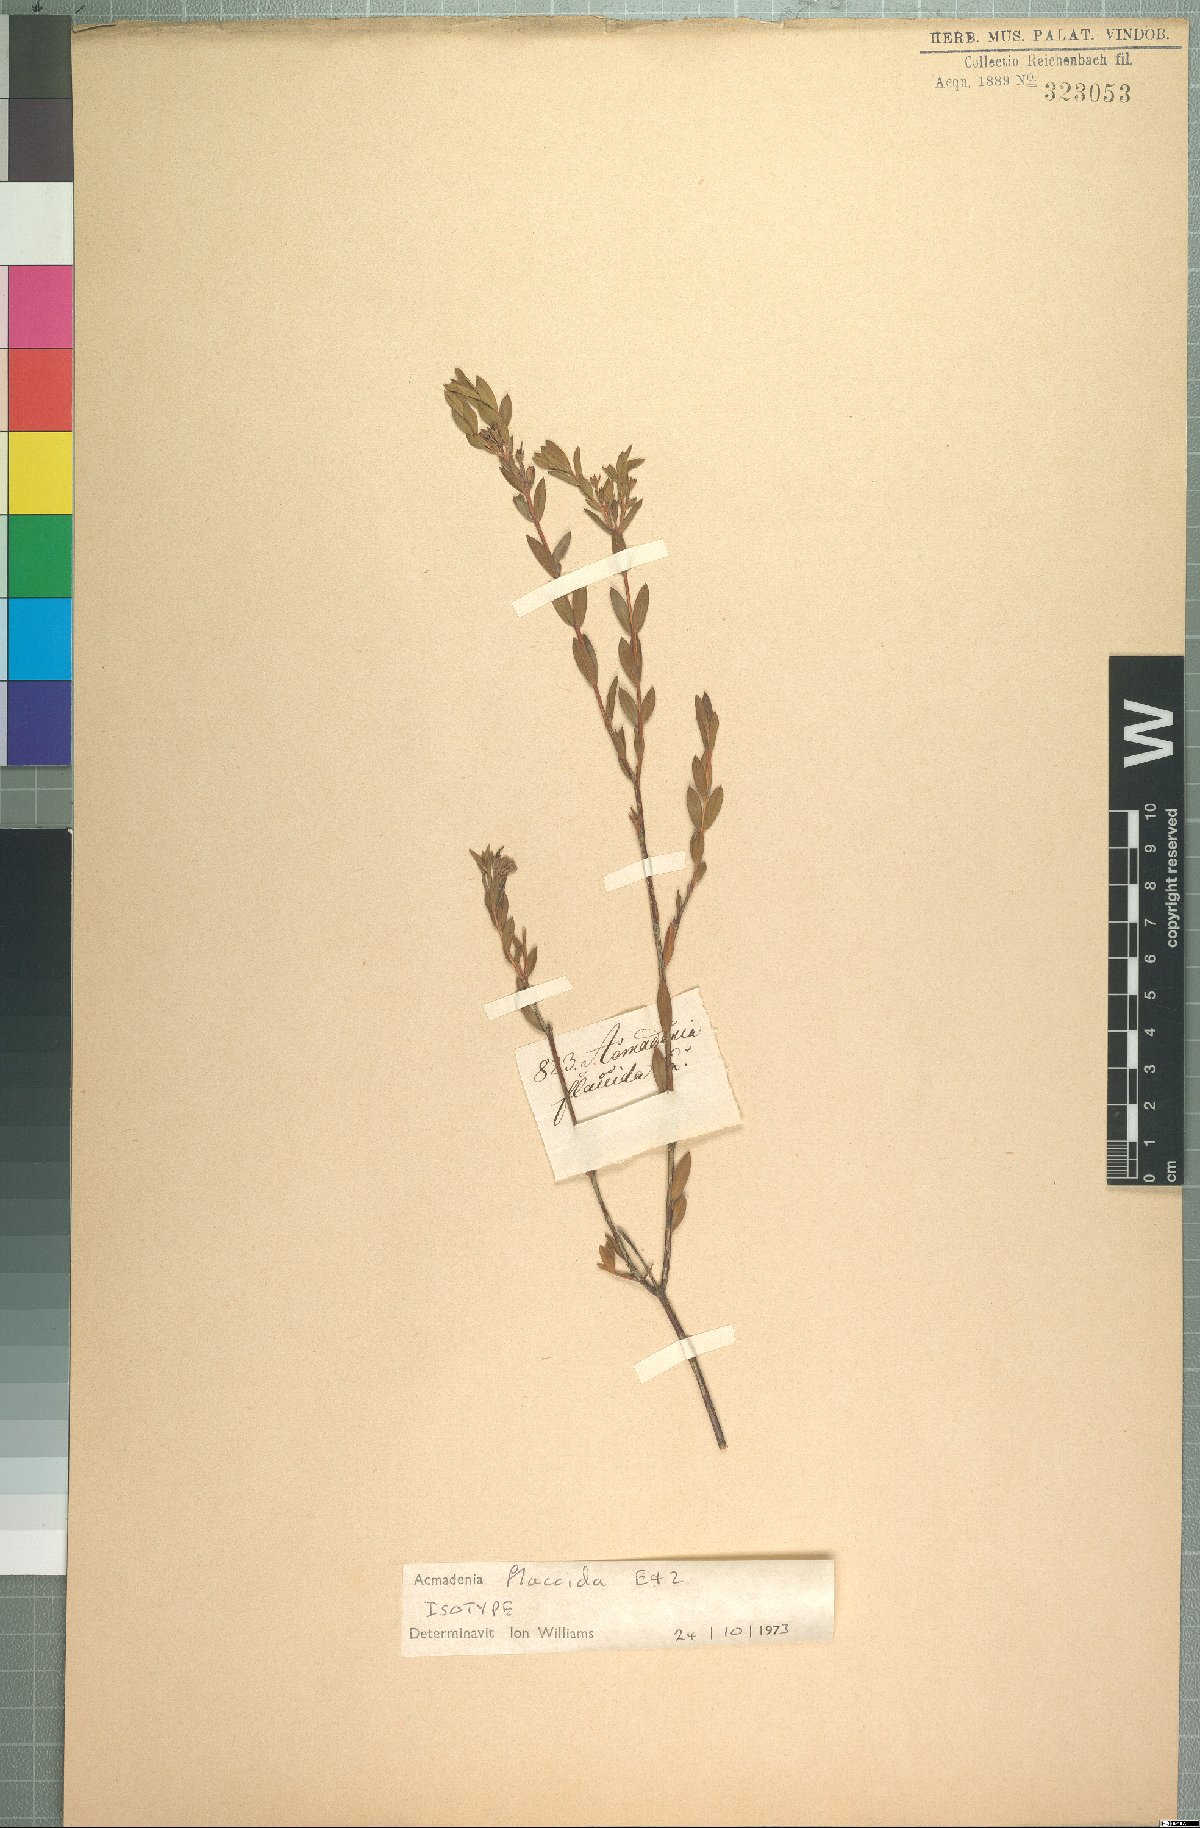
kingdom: Plantae
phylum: Tracheophyta
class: Magnoliopsida
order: Sapindales
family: Rutaceae
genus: Acmadenia
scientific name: Acmadenia flaccida
